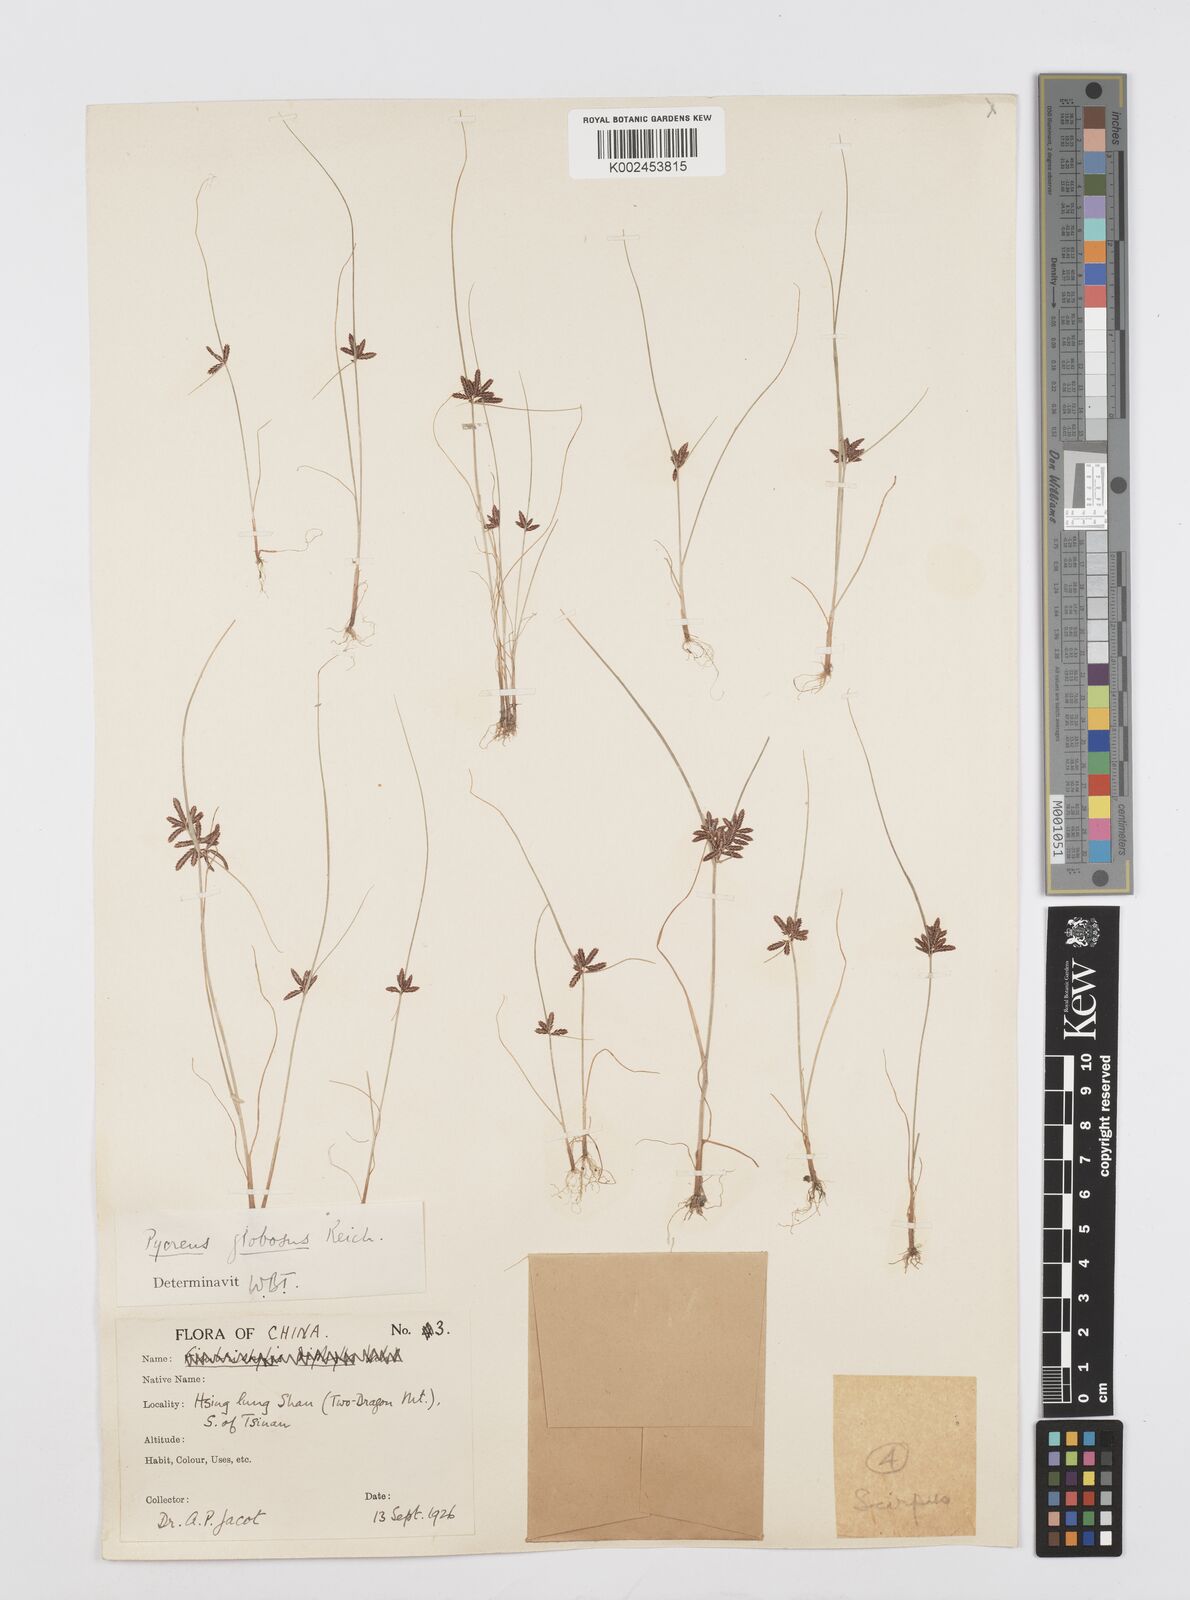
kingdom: Plantae
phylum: Tracheophyta
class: Liliopsida
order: Poales
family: Cyperaceae
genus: Cyperus
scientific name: Cyperus flavidus
